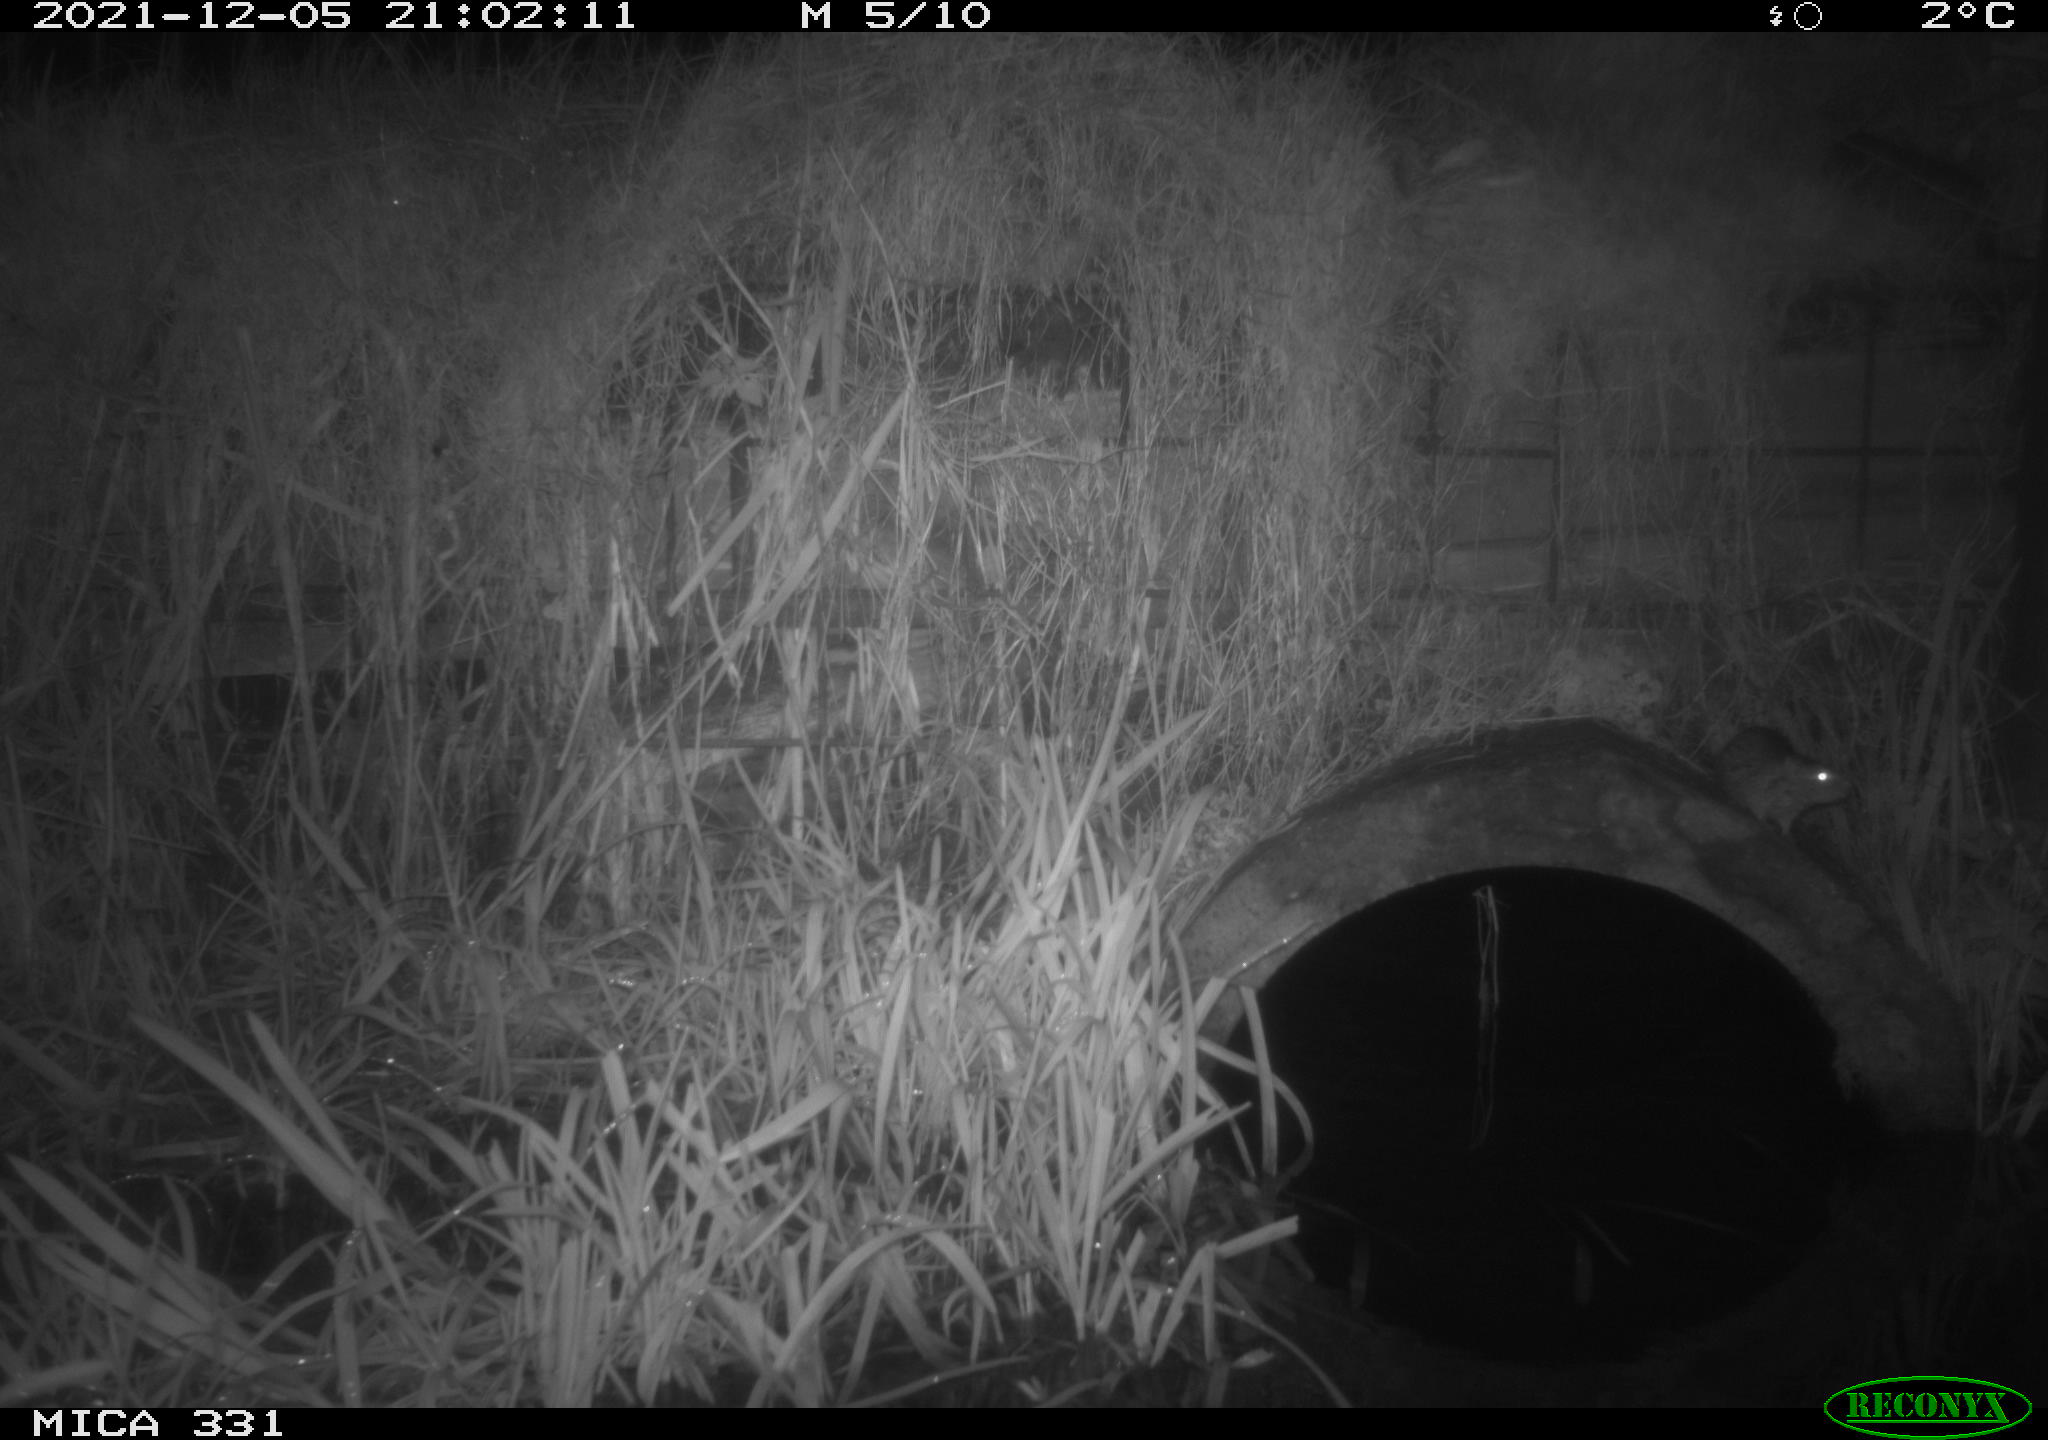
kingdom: Animalia
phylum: Chordata
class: Mammalia
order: Rodentia
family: Muridae
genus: Rattus
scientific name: Rattus norvegicus
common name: Brown rat
